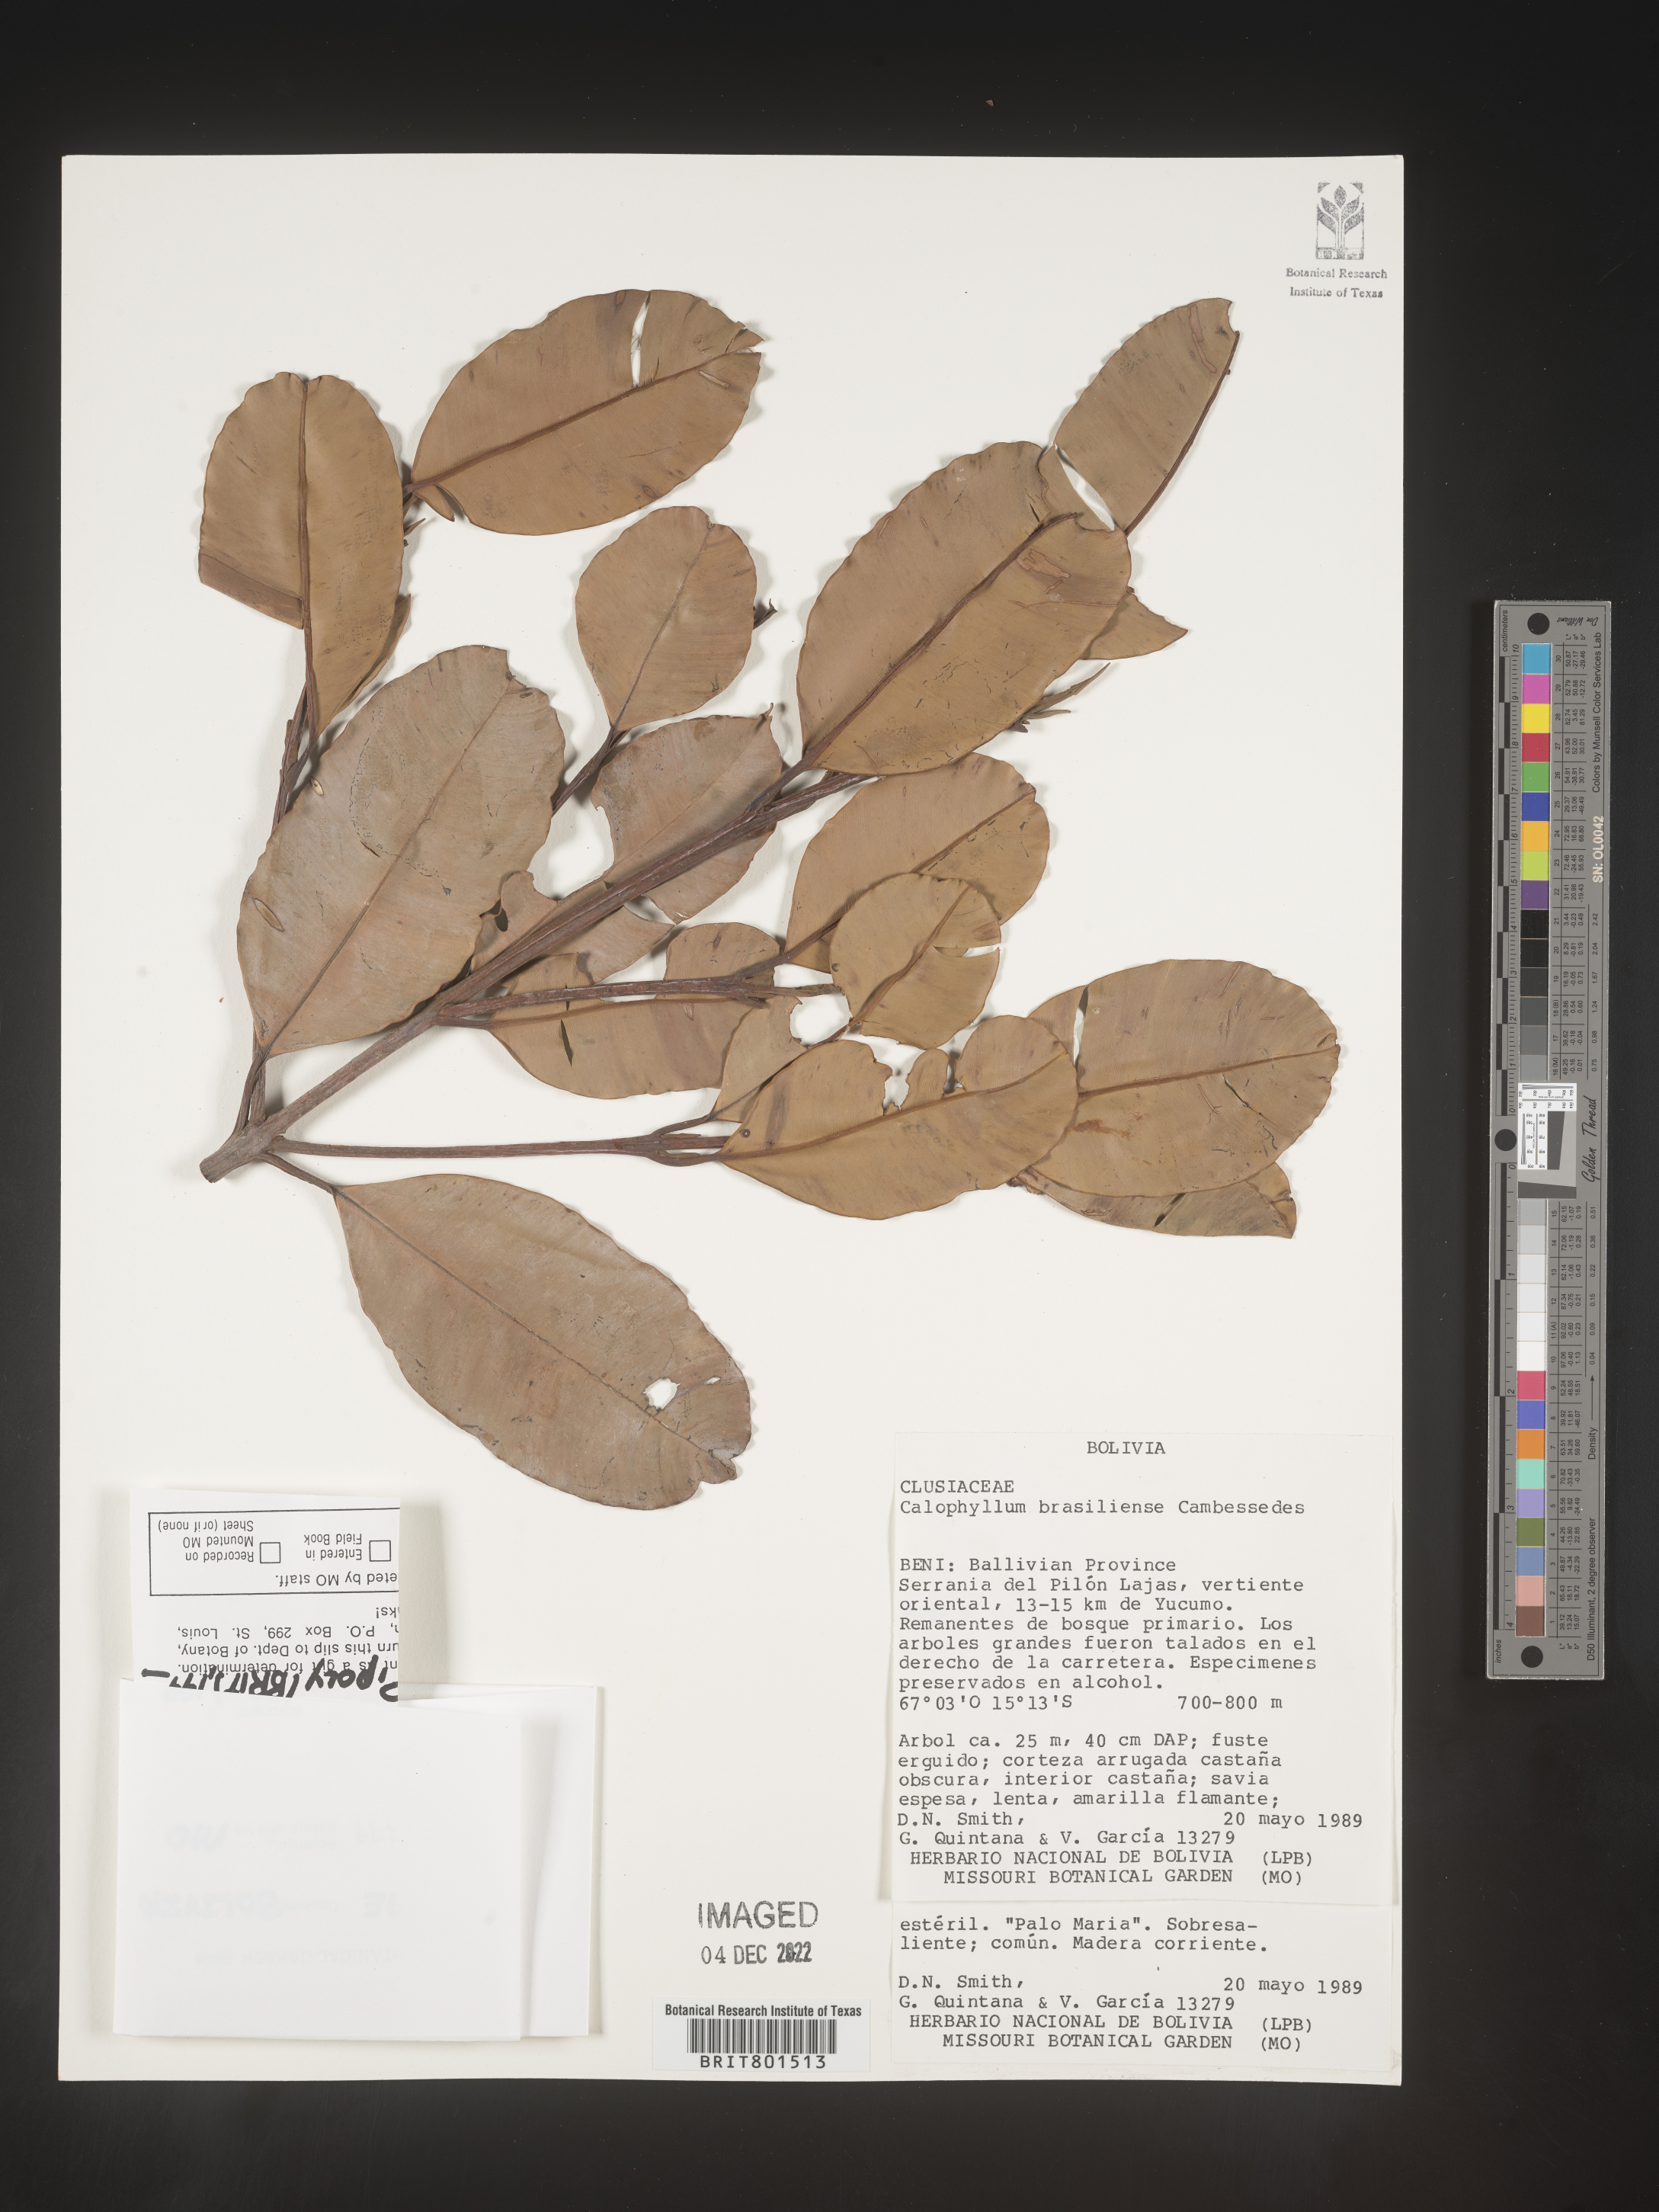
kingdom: Plantae
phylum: Tracheophyta
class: Magnoliopsida
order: Malpighiales
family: Calophyllaceae
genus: Calophyllum
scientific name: Calophyllum brasiliense
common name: Santa maria
